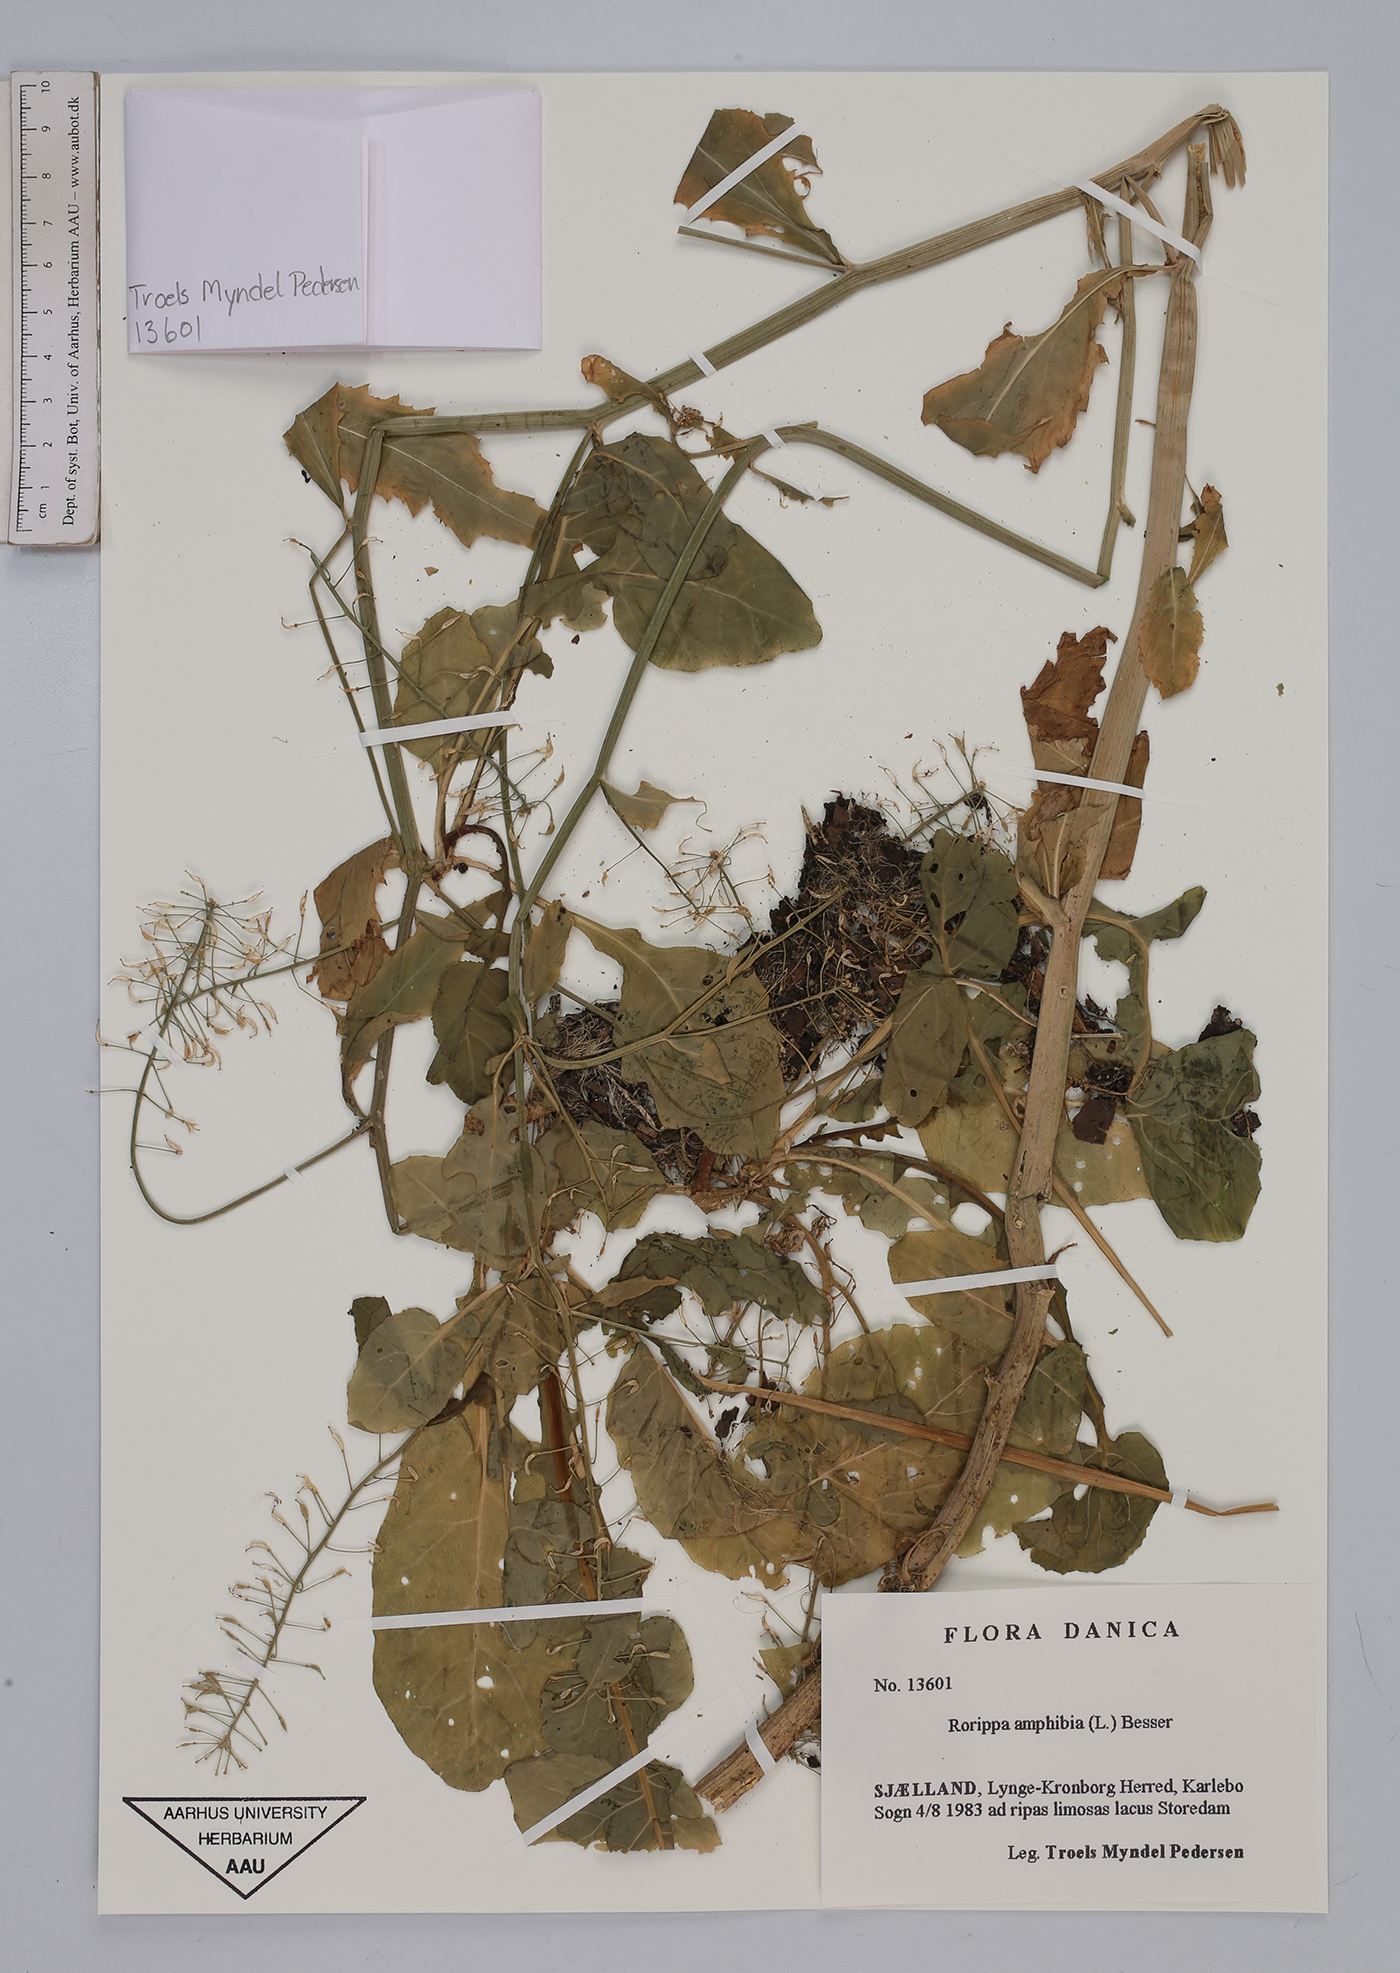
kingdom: Plantae
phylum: Tracheophyta
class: Magnoliopsida
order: Brassicales
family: Brassicaceae
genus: Rorippa
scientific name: Rorippa amphibia
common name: Great yellow-cress
